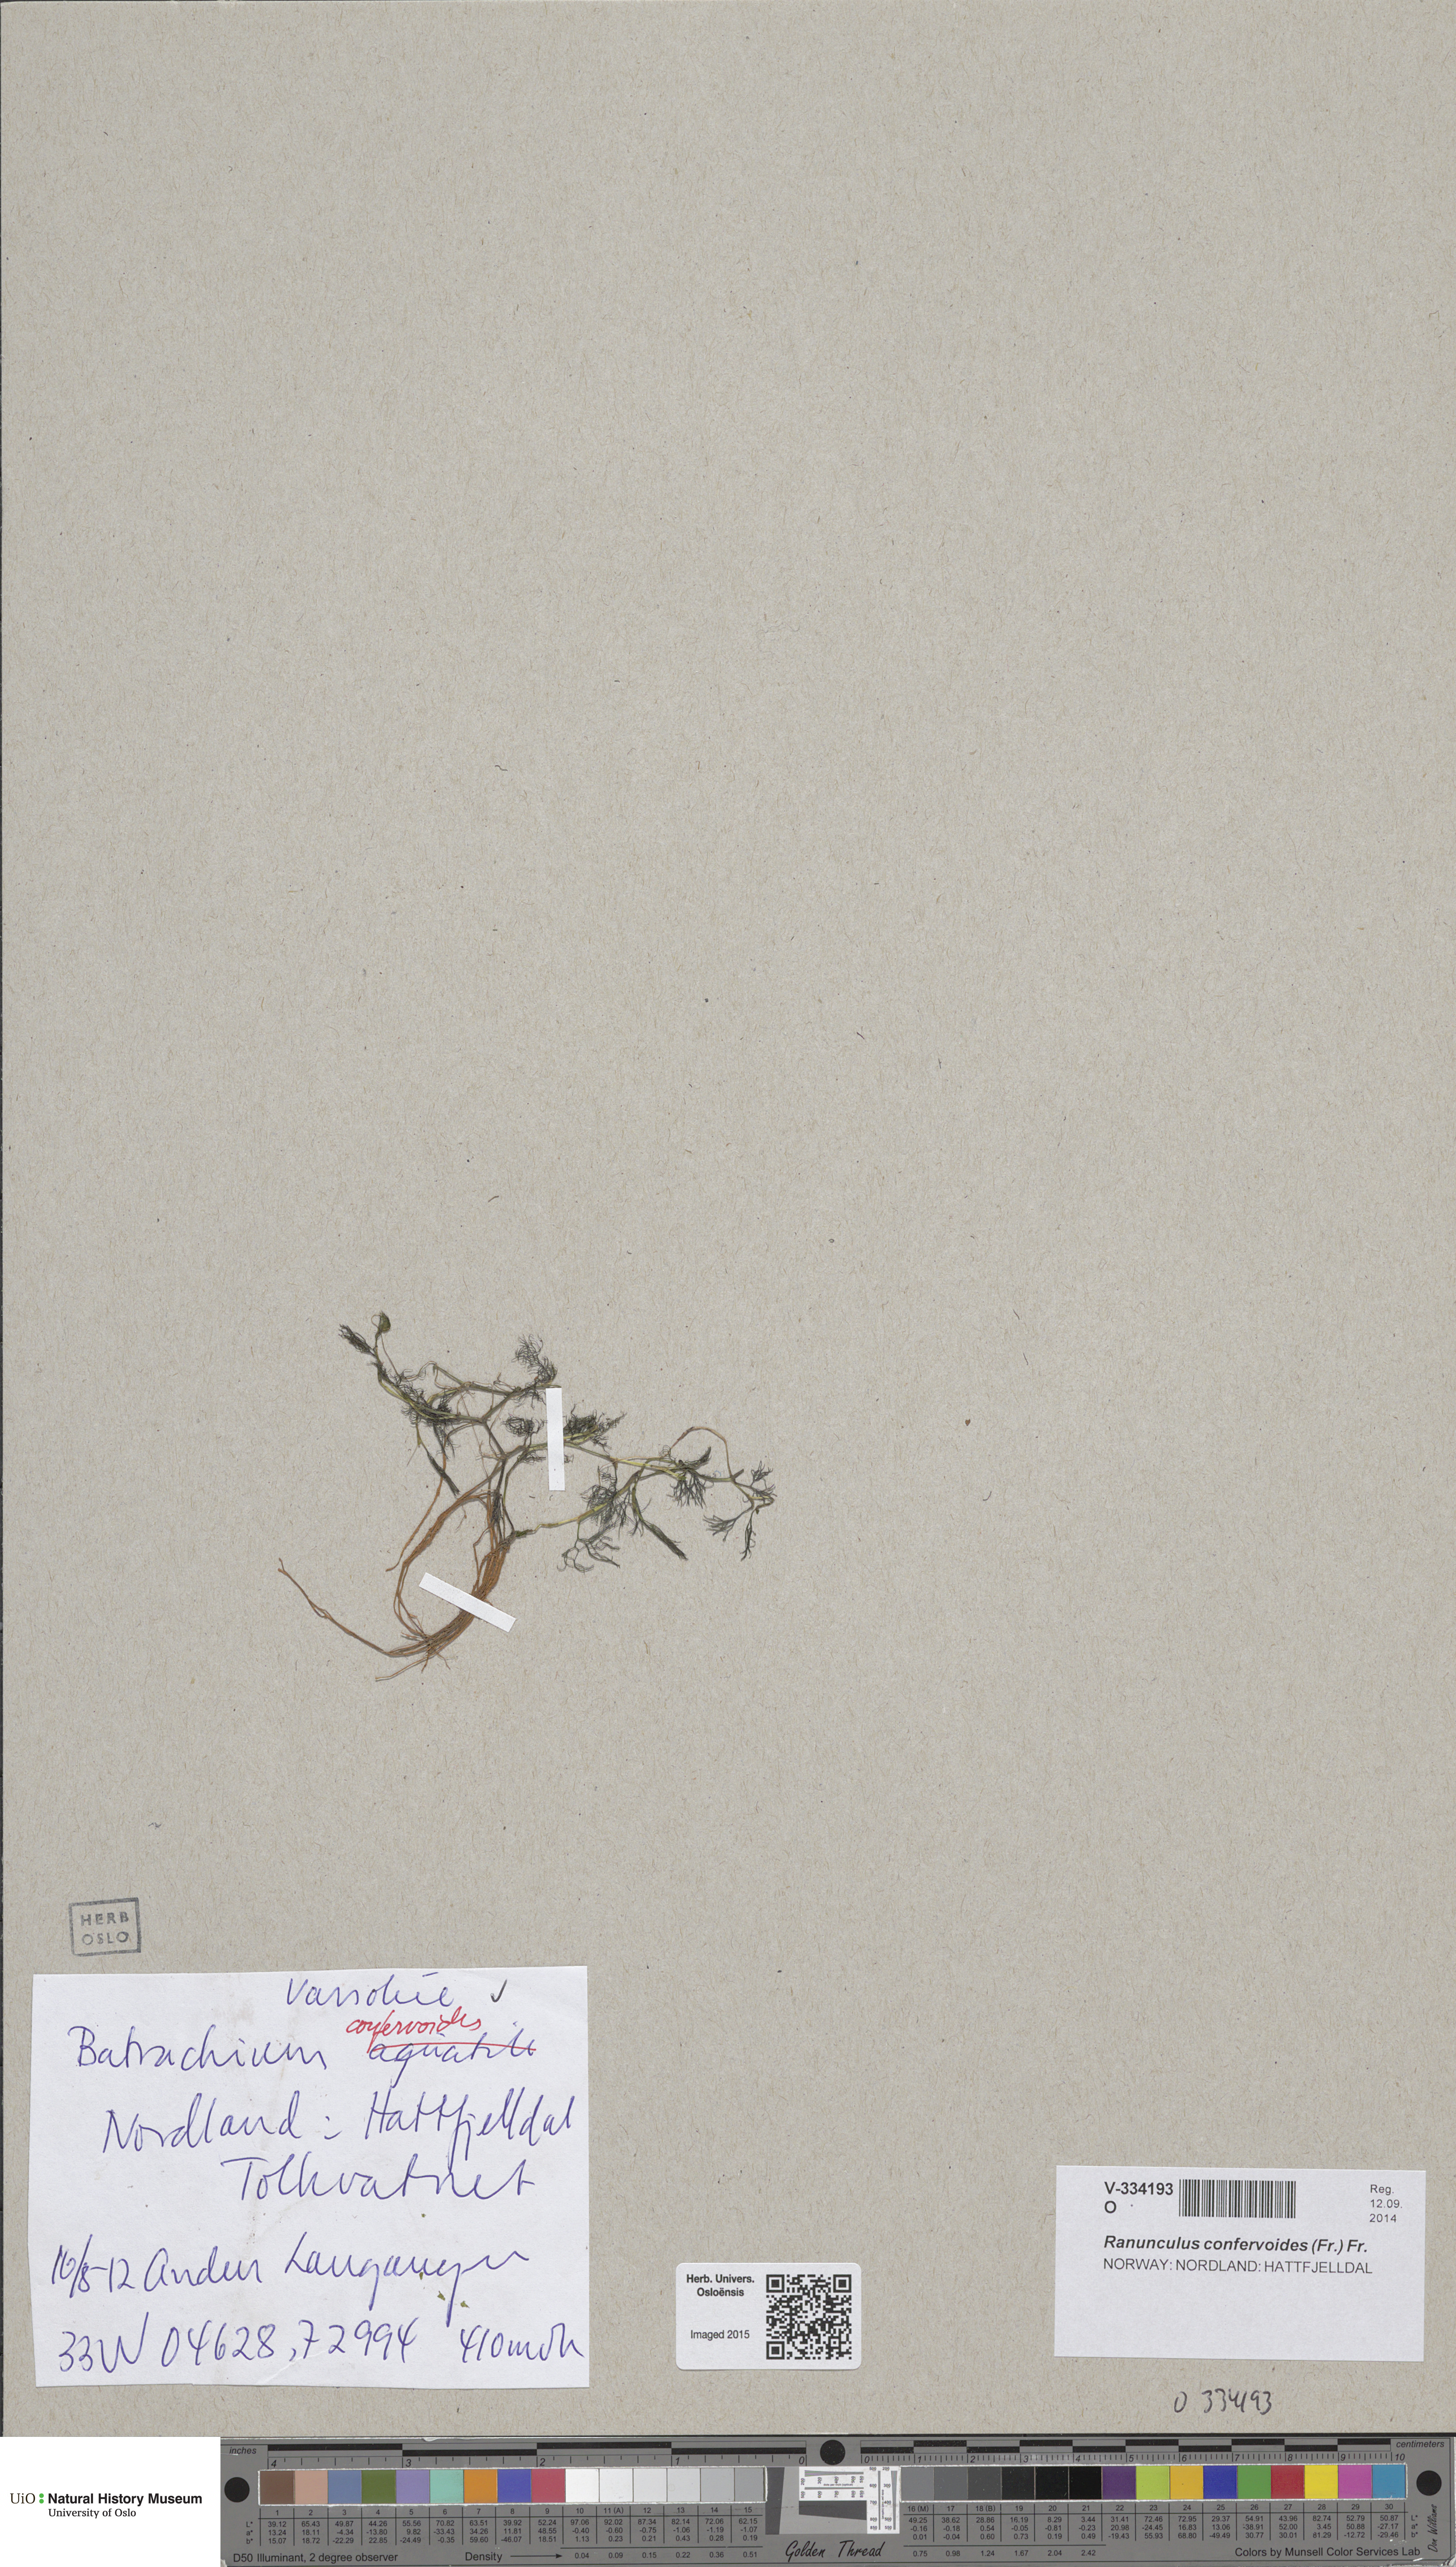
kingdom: Plantae
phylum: Tracheophyta
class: Magnoliopsida
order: Ranunculales
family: Ranunculaceae
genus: Ranunculus
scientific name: Ranunculus confervoides
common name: Delicate buttercup
